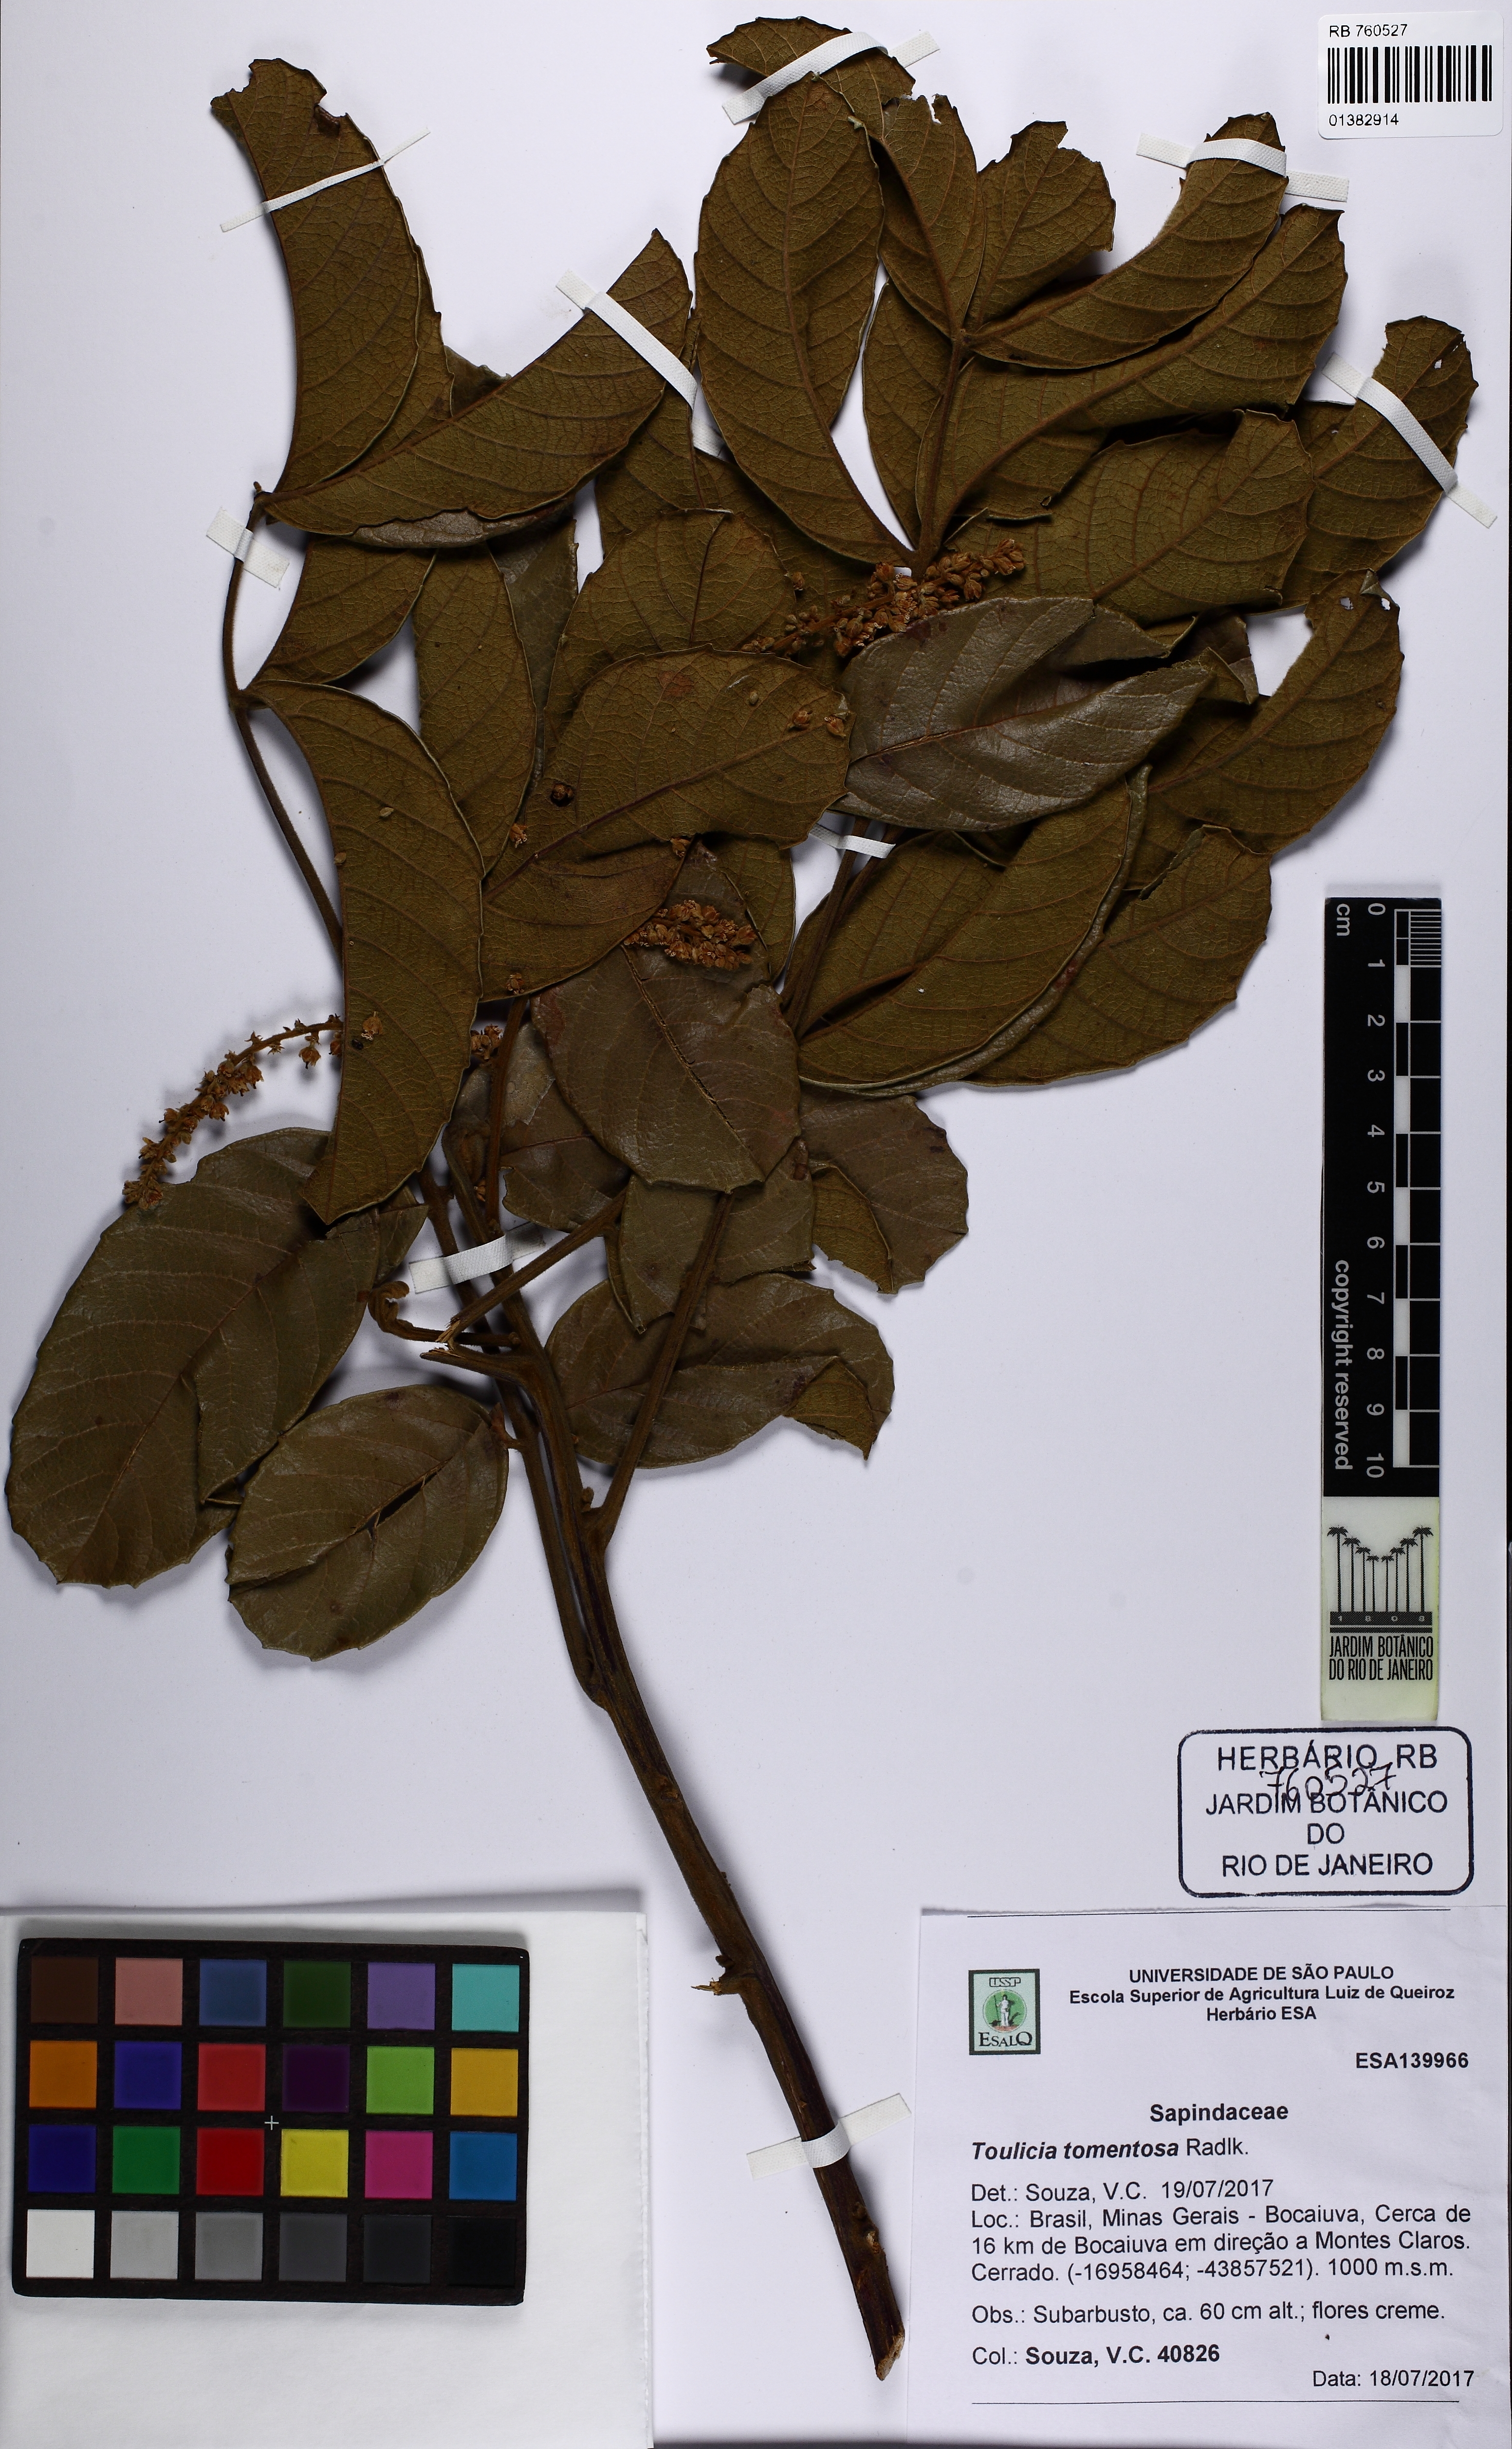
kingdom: Plantae
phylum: Tracheophyta
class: Magnoliopsida
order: Sapindales
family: Sapindaceae
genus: Toulicia
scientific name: Toulicia tomentosa
